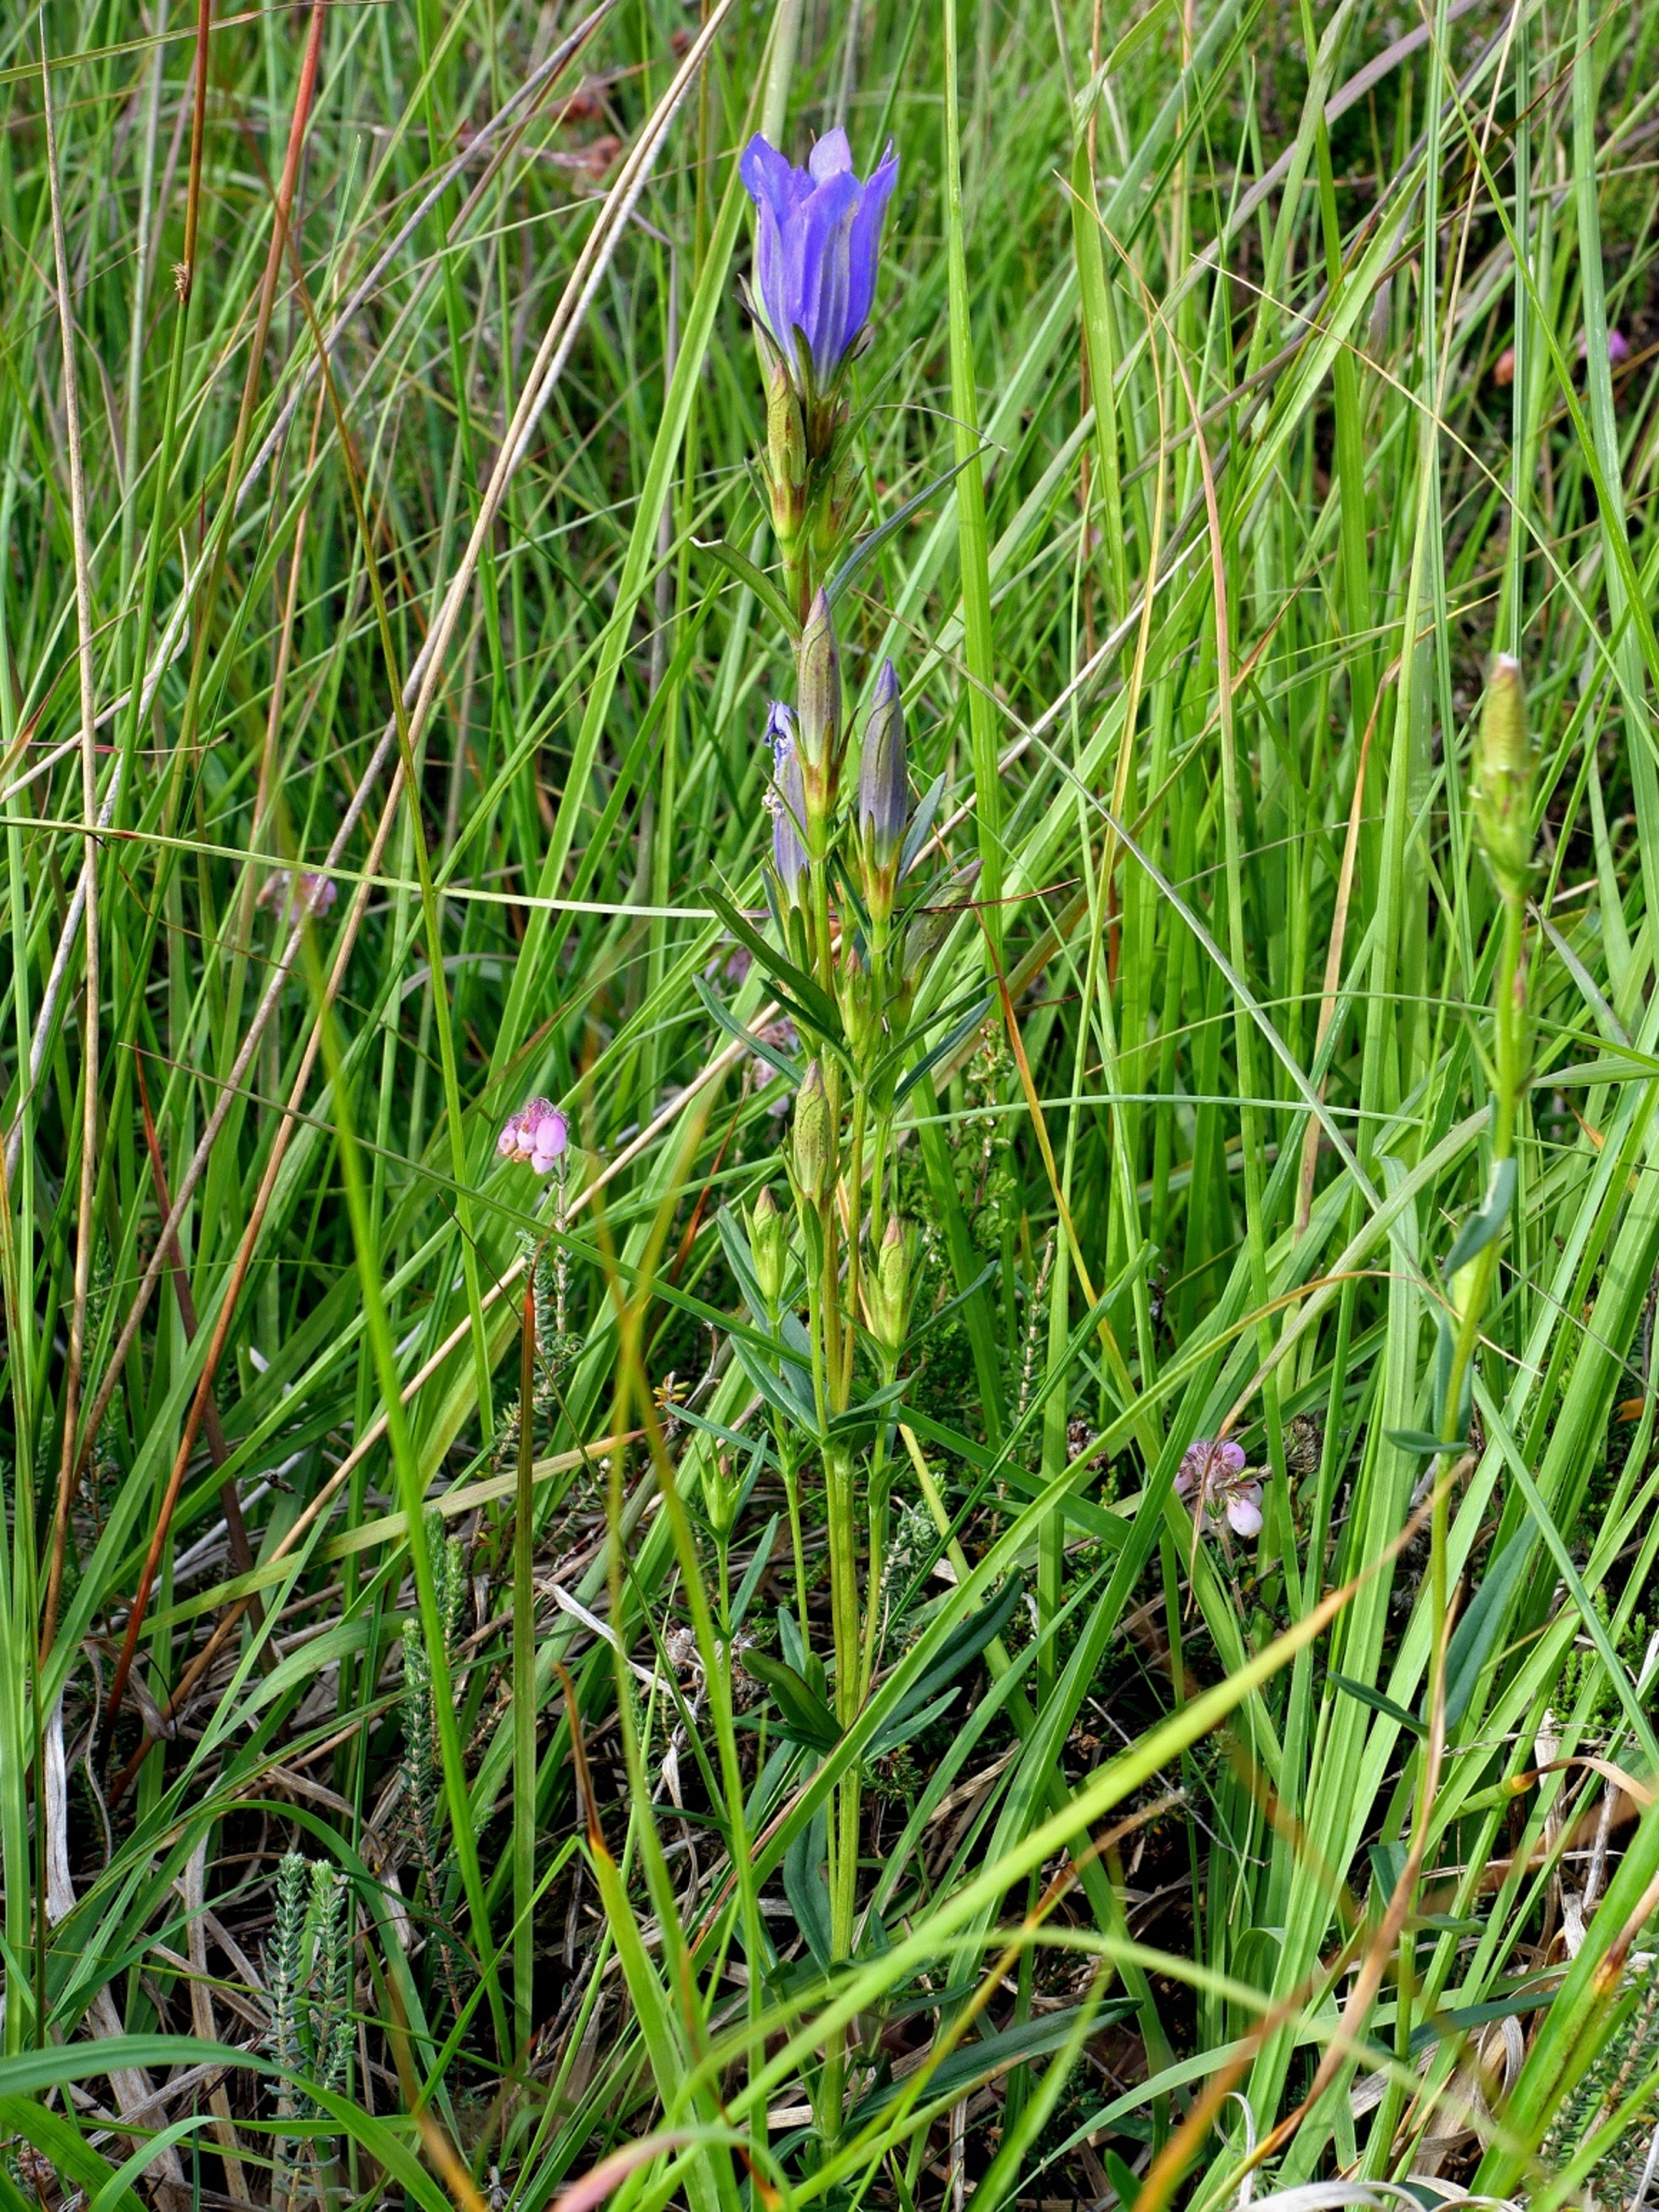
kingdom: Plantae
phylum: Tracheophyta
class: Magnoliopsida
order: Gentianales
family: Gentianaceae
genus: Gentiana
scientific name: Gentiana pneumonanthe
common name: Klokke-ensian
